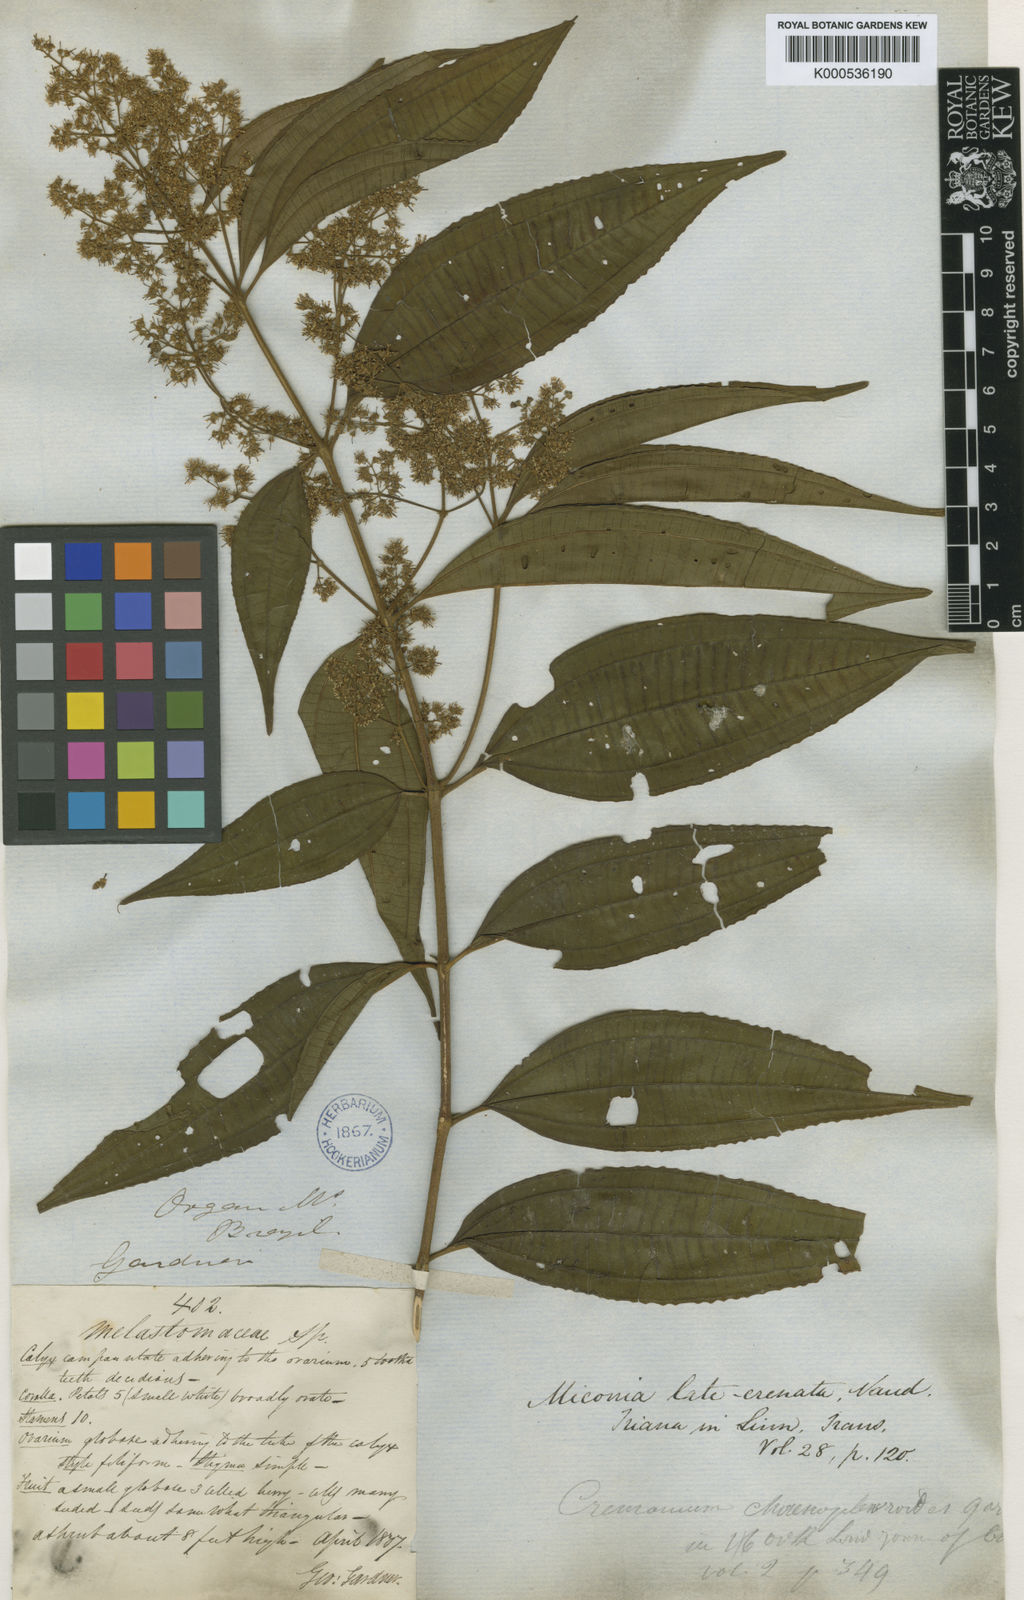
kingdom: Plantae
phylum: Tracheophyta
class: Magnoliopsida
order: Myrtales
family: Melastomataceae
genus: Miconia
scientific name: Miconia latecrenata
